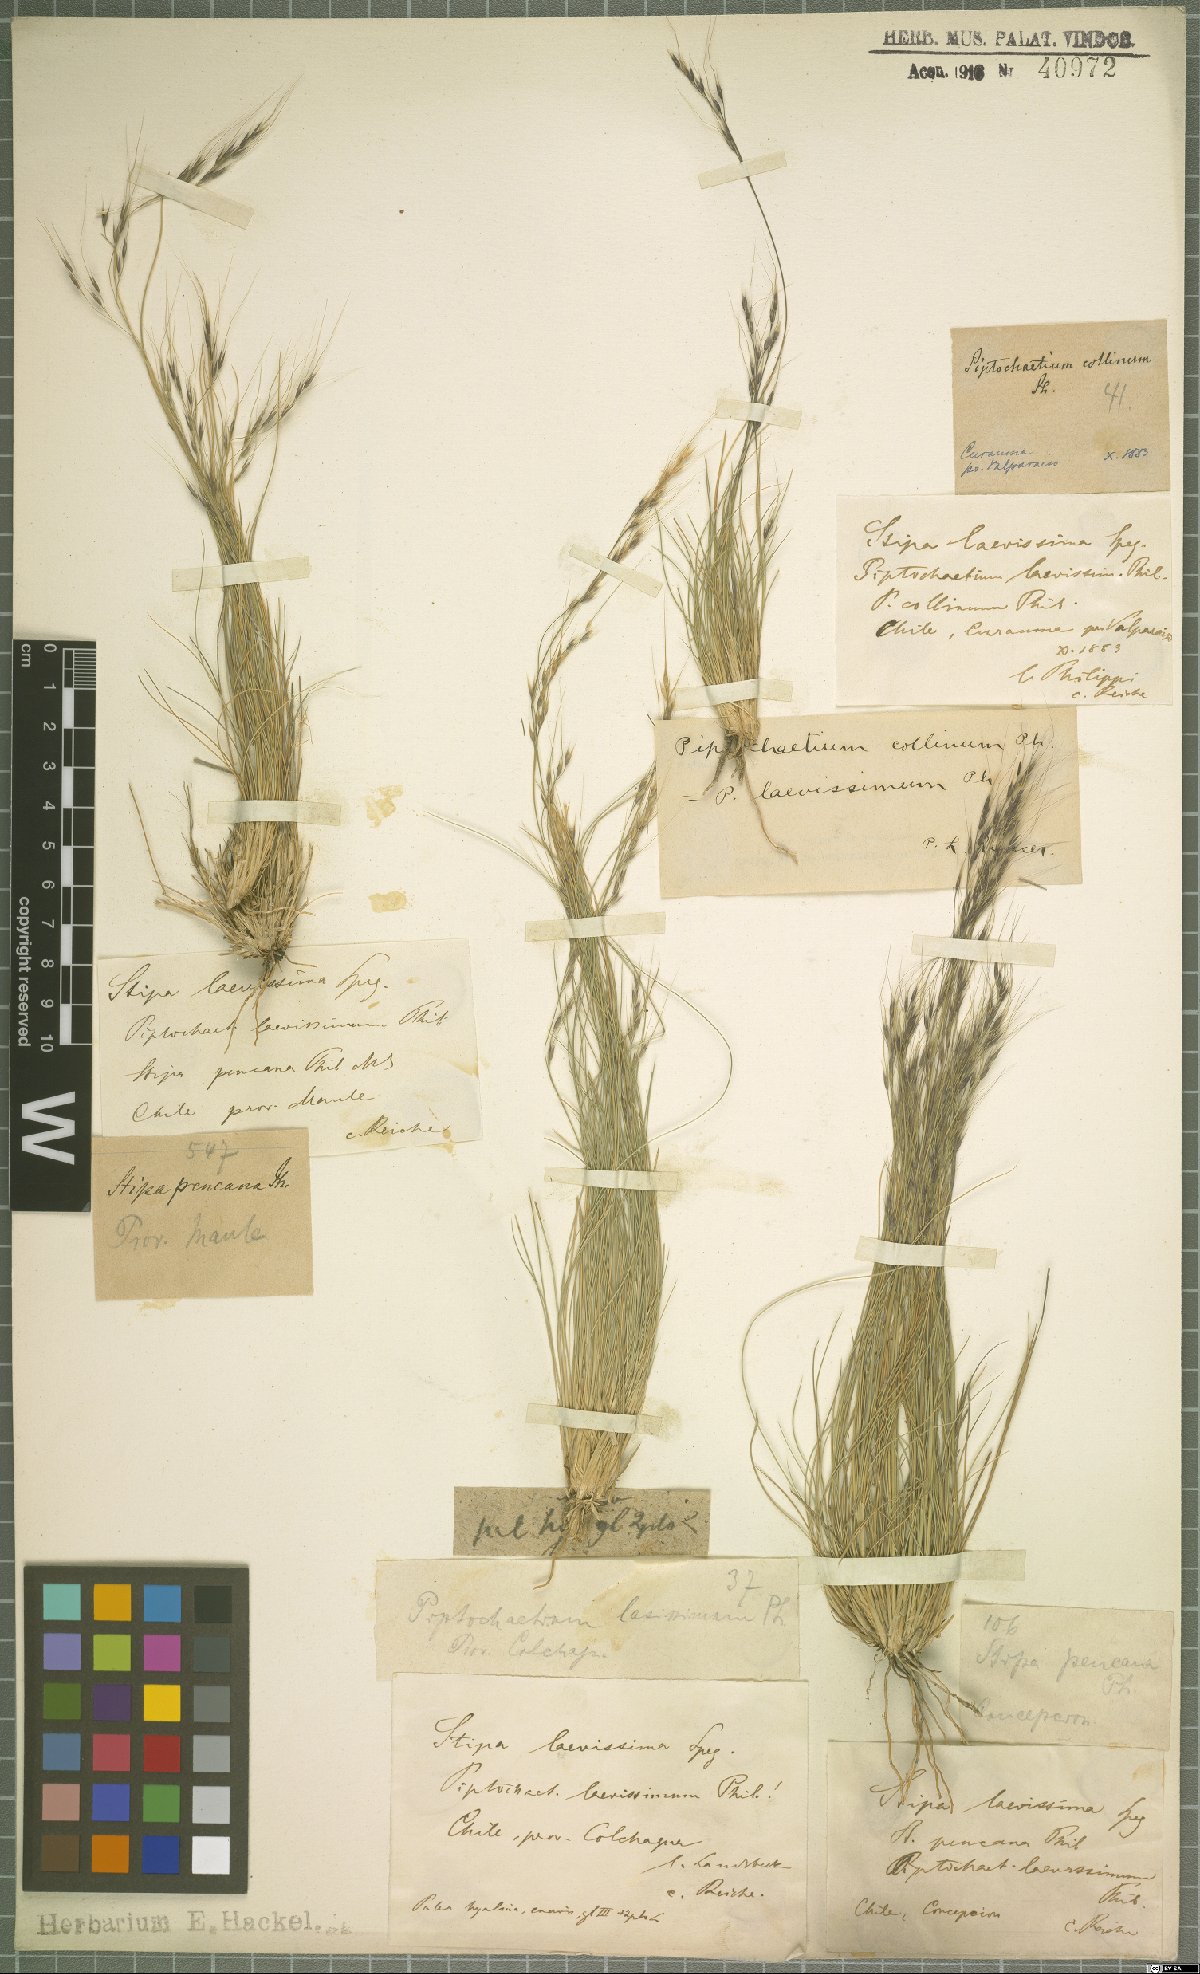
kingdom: Plantae
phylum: Tracheophyta
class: Liliopsida
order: Poales
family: Poaceae
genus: Nassella
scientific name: Nassella laevissima
